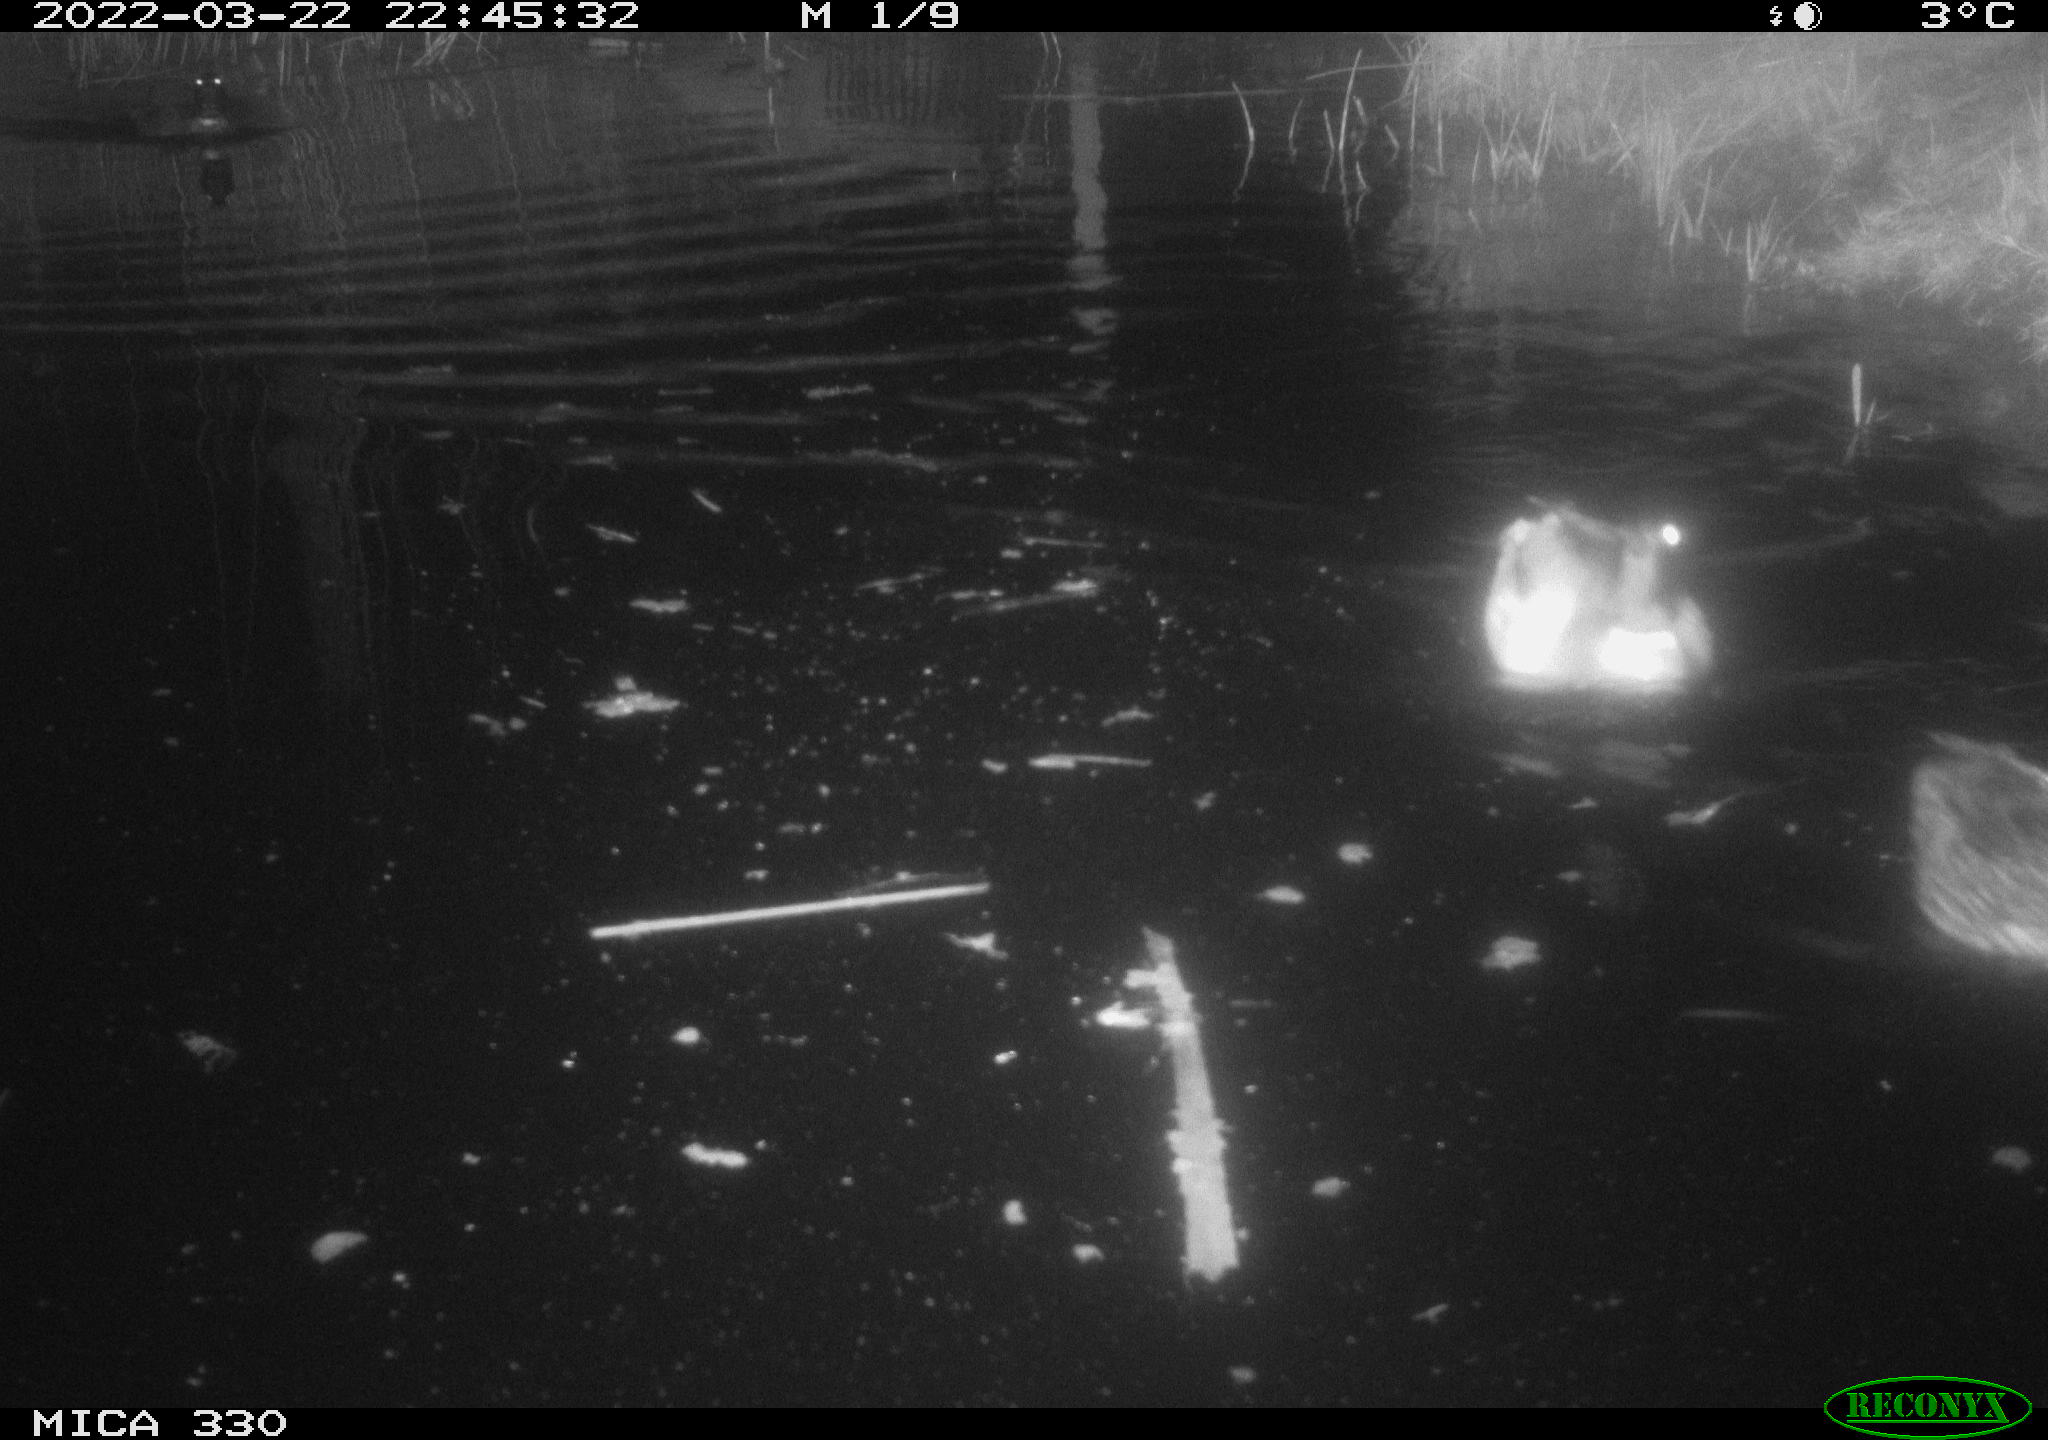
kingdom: Animalia
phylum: Chordata
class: Aves
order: Anseriformes
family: Anatidae
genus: Anas
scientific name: Anas platyrhynchos
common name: Mallard
